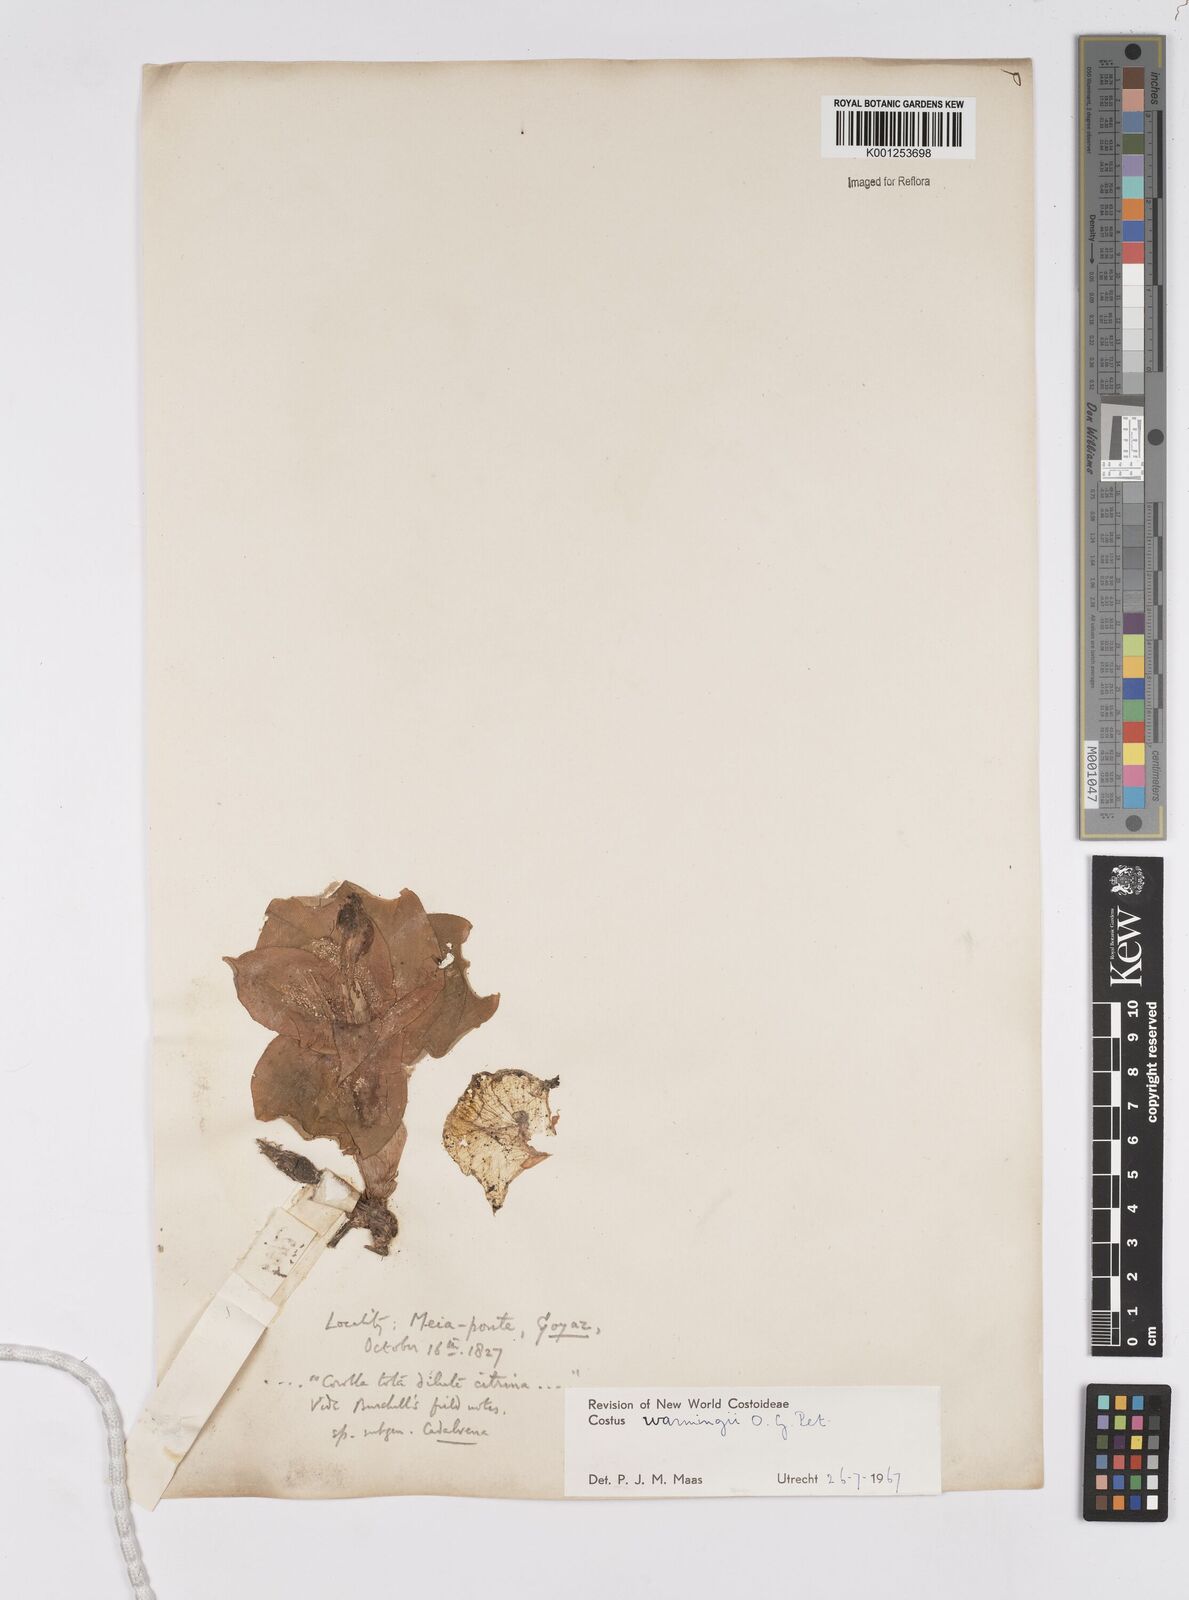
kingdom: Plantae
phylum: Tracheophyta
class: Liliopsida
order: Zingiberales
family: Costaceae
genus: Chamaecostus
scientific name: Chamaecostus subsessilis
